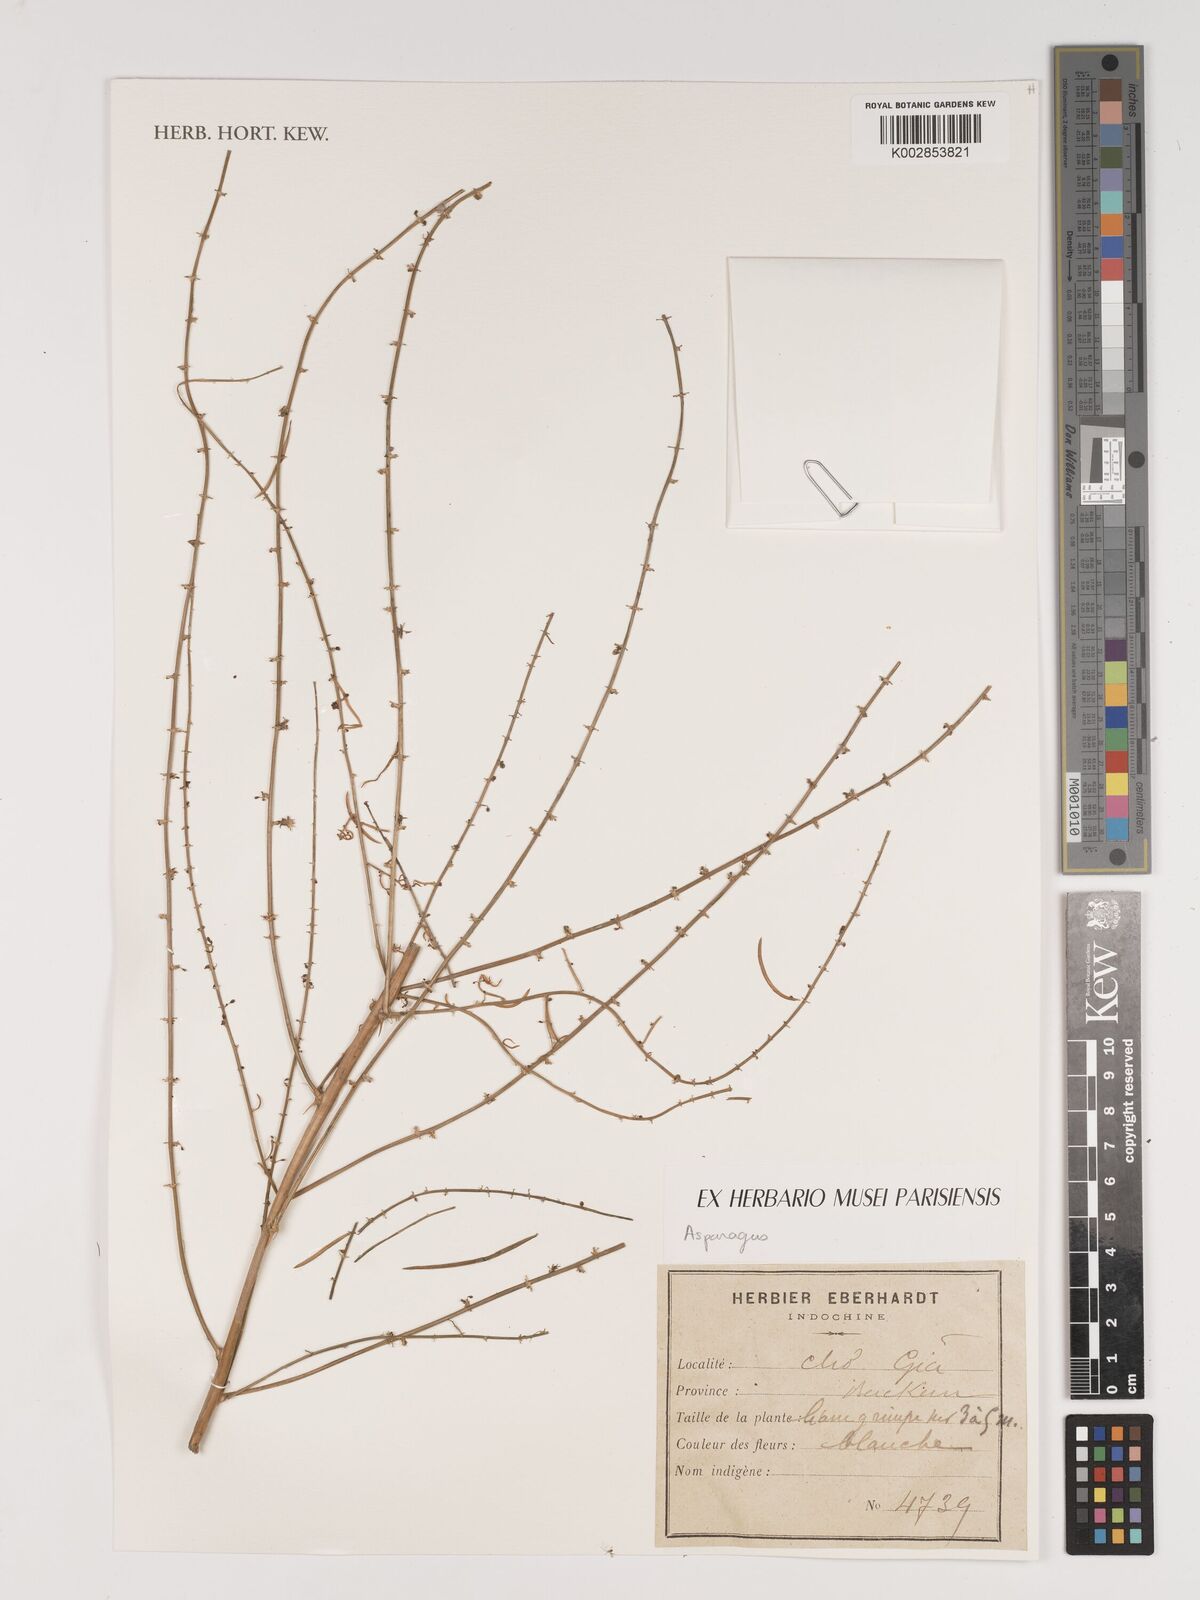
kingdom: Plantae
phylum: Tracheophyta
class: Liliopsida
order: Asparagales
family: Asparagaceae
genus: Asparagus
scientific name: Asparagus
